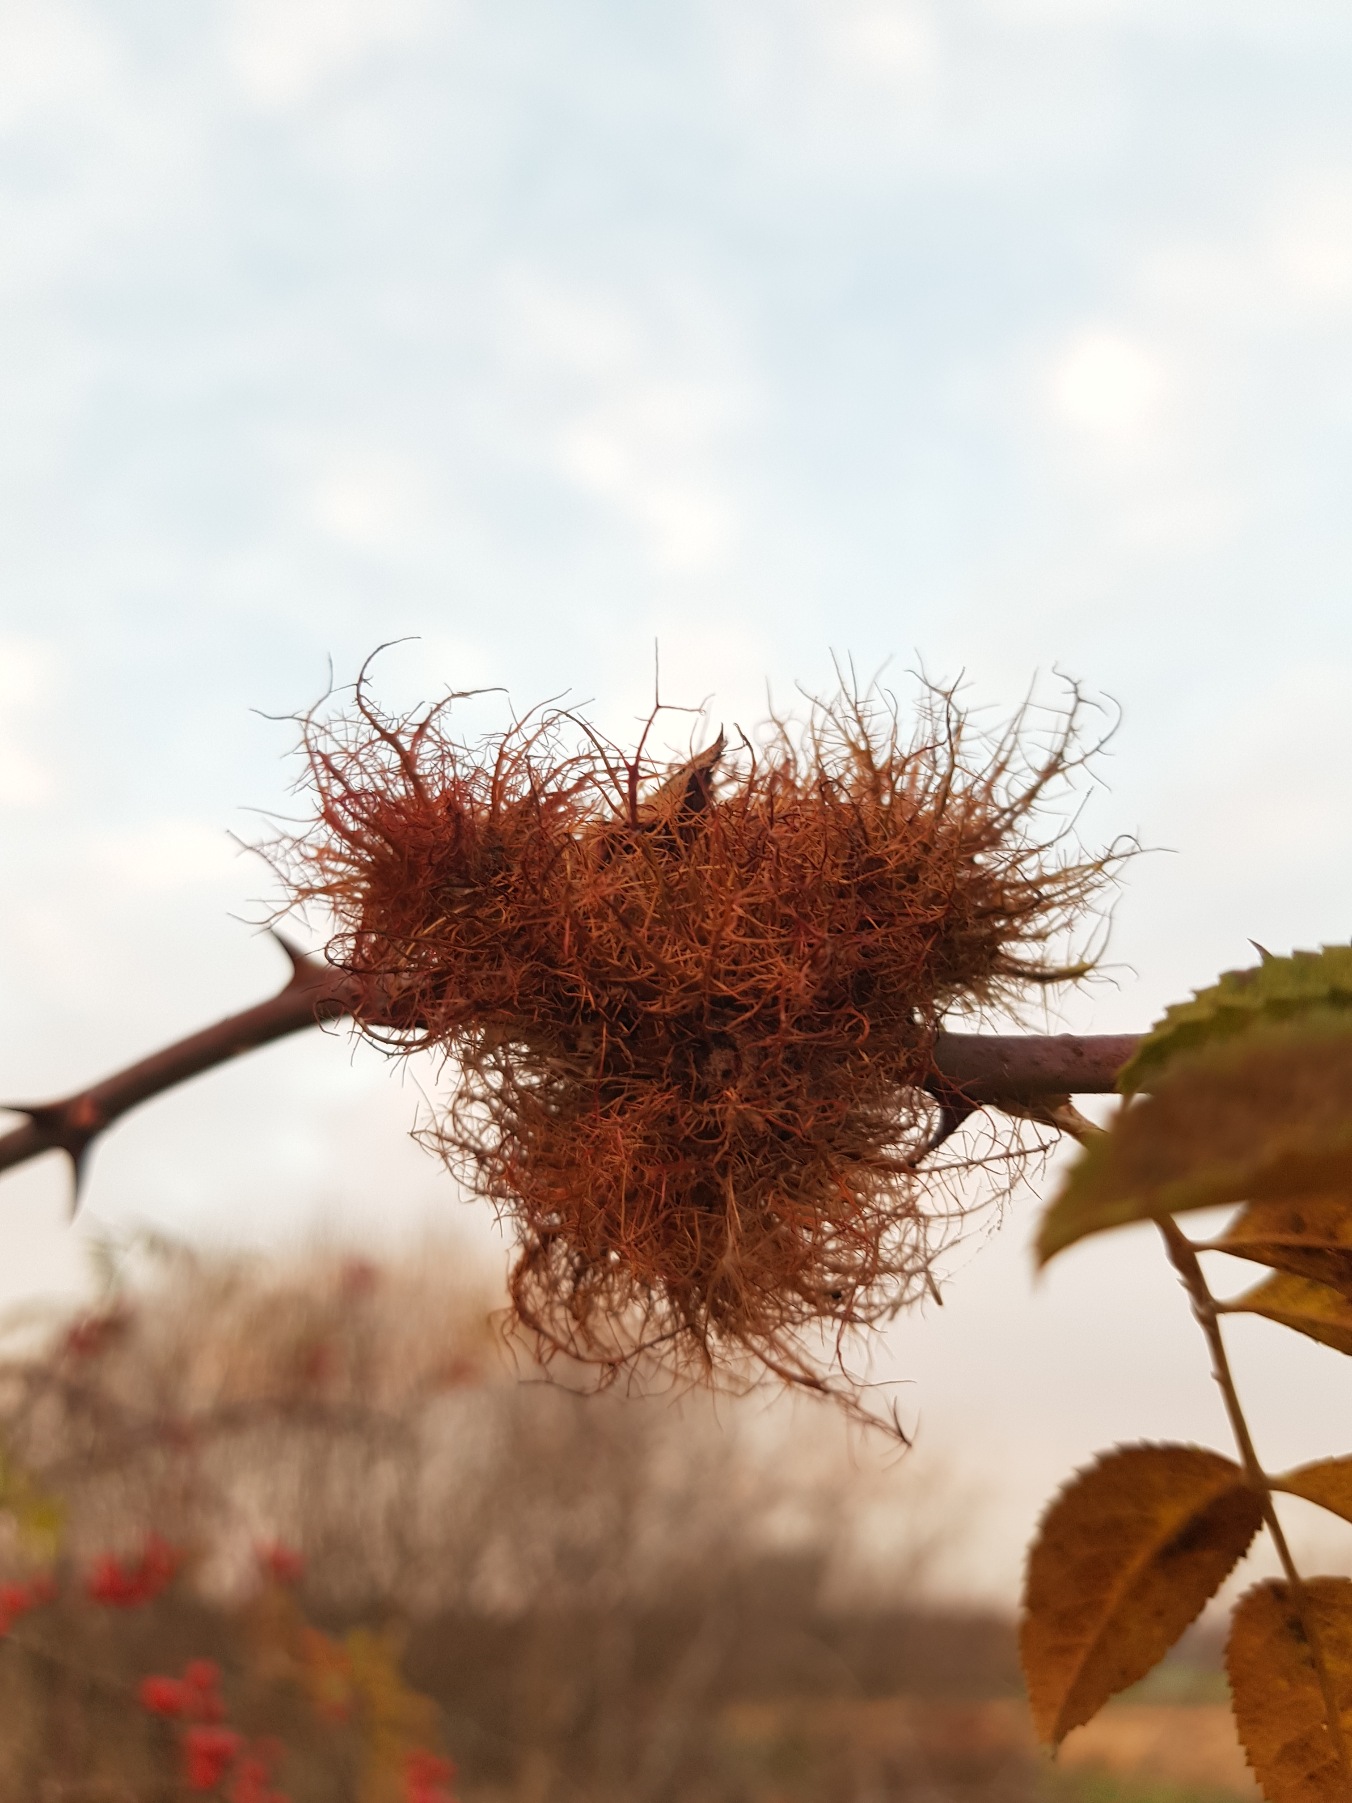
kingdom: Animalia
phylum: Arthropoda
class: Insecta
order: Hymenoptera
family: Cynipidae
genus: Diplolepis
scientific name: Diplolepis rosae
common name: Bedeguargalhveps
